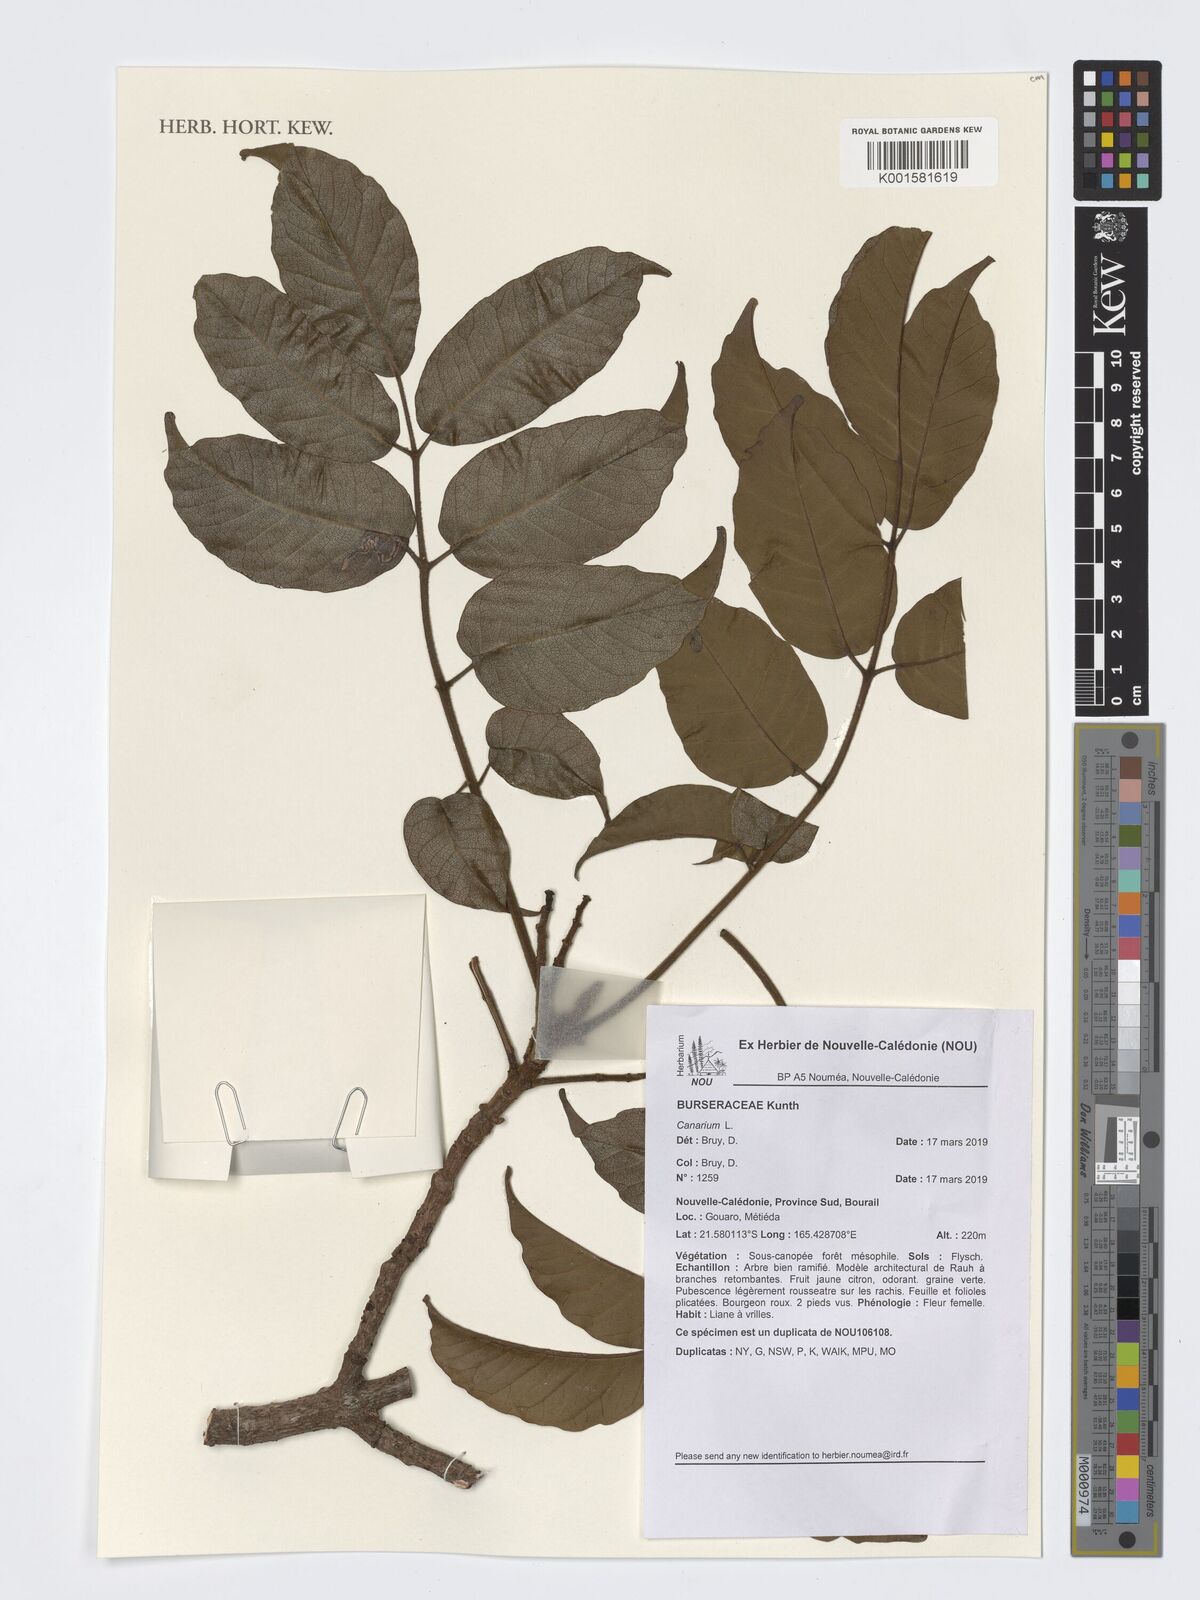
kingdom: Plantae
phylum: Tracheophyta
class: Magnoliopsida
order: Sapindales
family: Burseraceae
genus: Canarium
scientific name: Canarium
